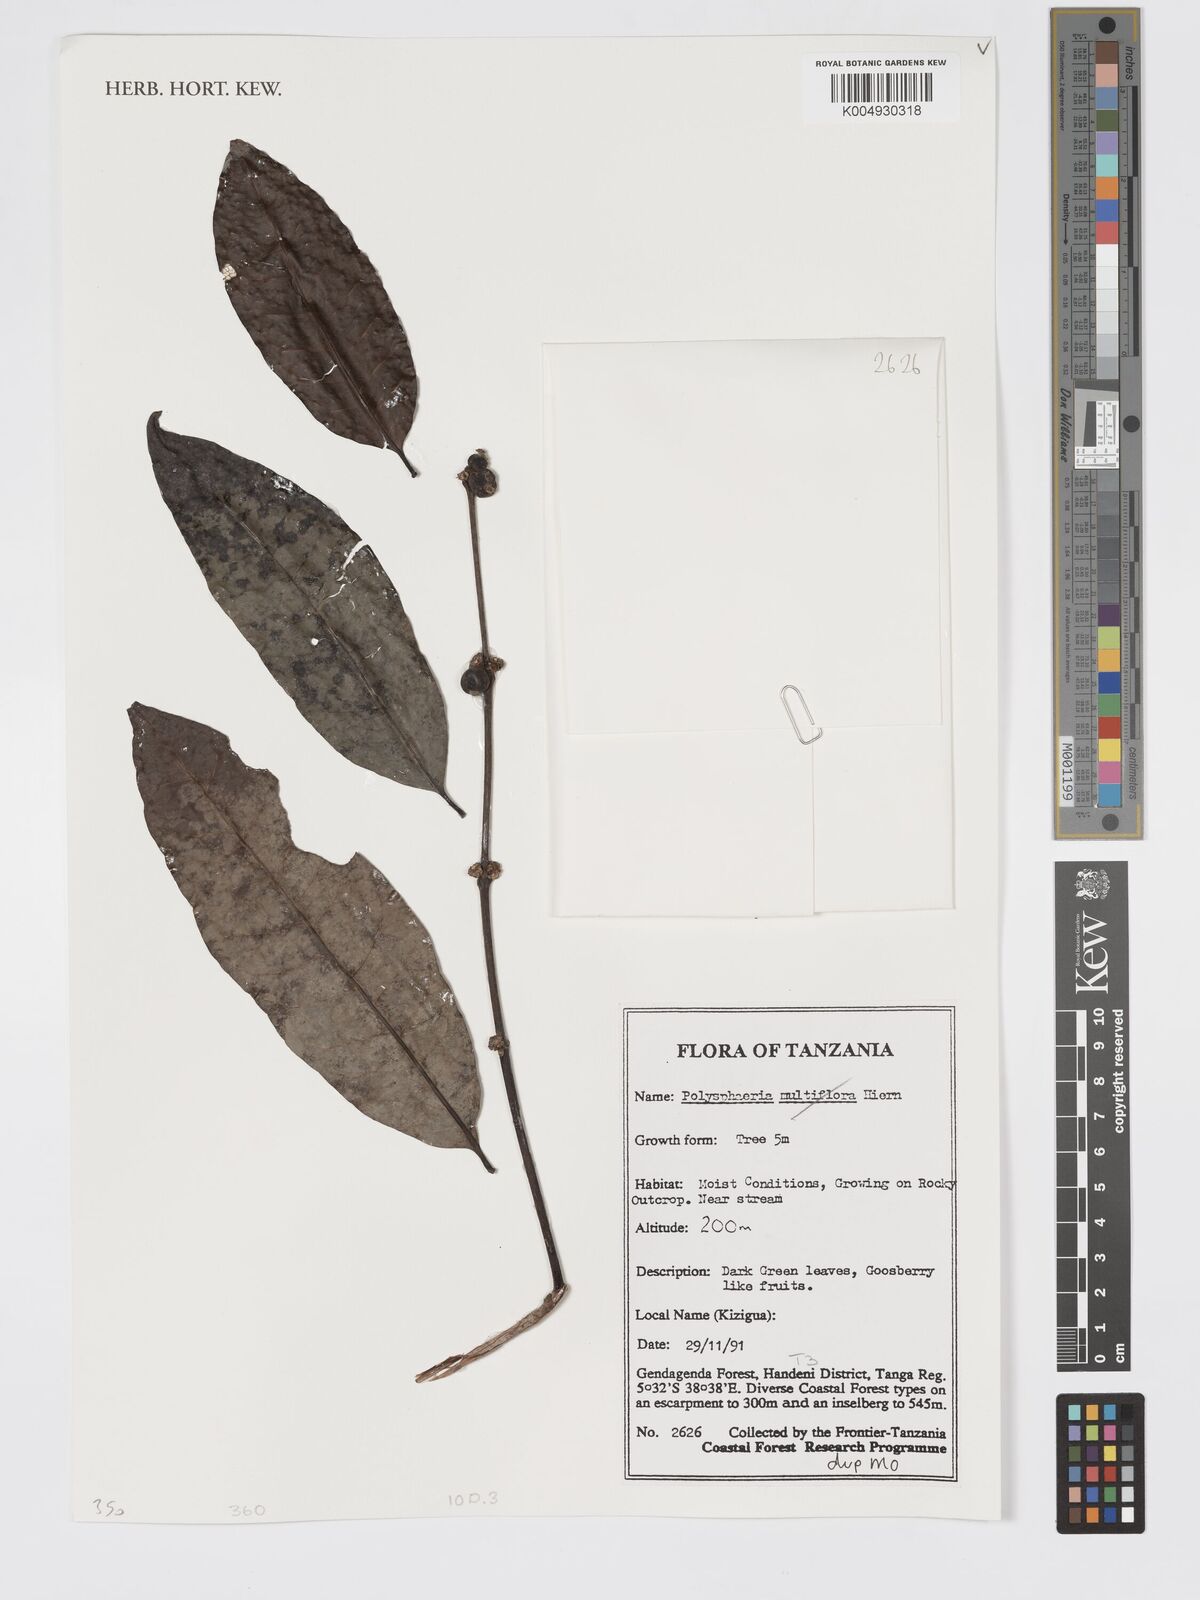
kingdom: Plantae
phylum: Tracheophyta
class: Magnoliopsida
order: Gentianales
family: Rubiaceae
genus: Polysphaeria
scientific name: Polysphaeria
